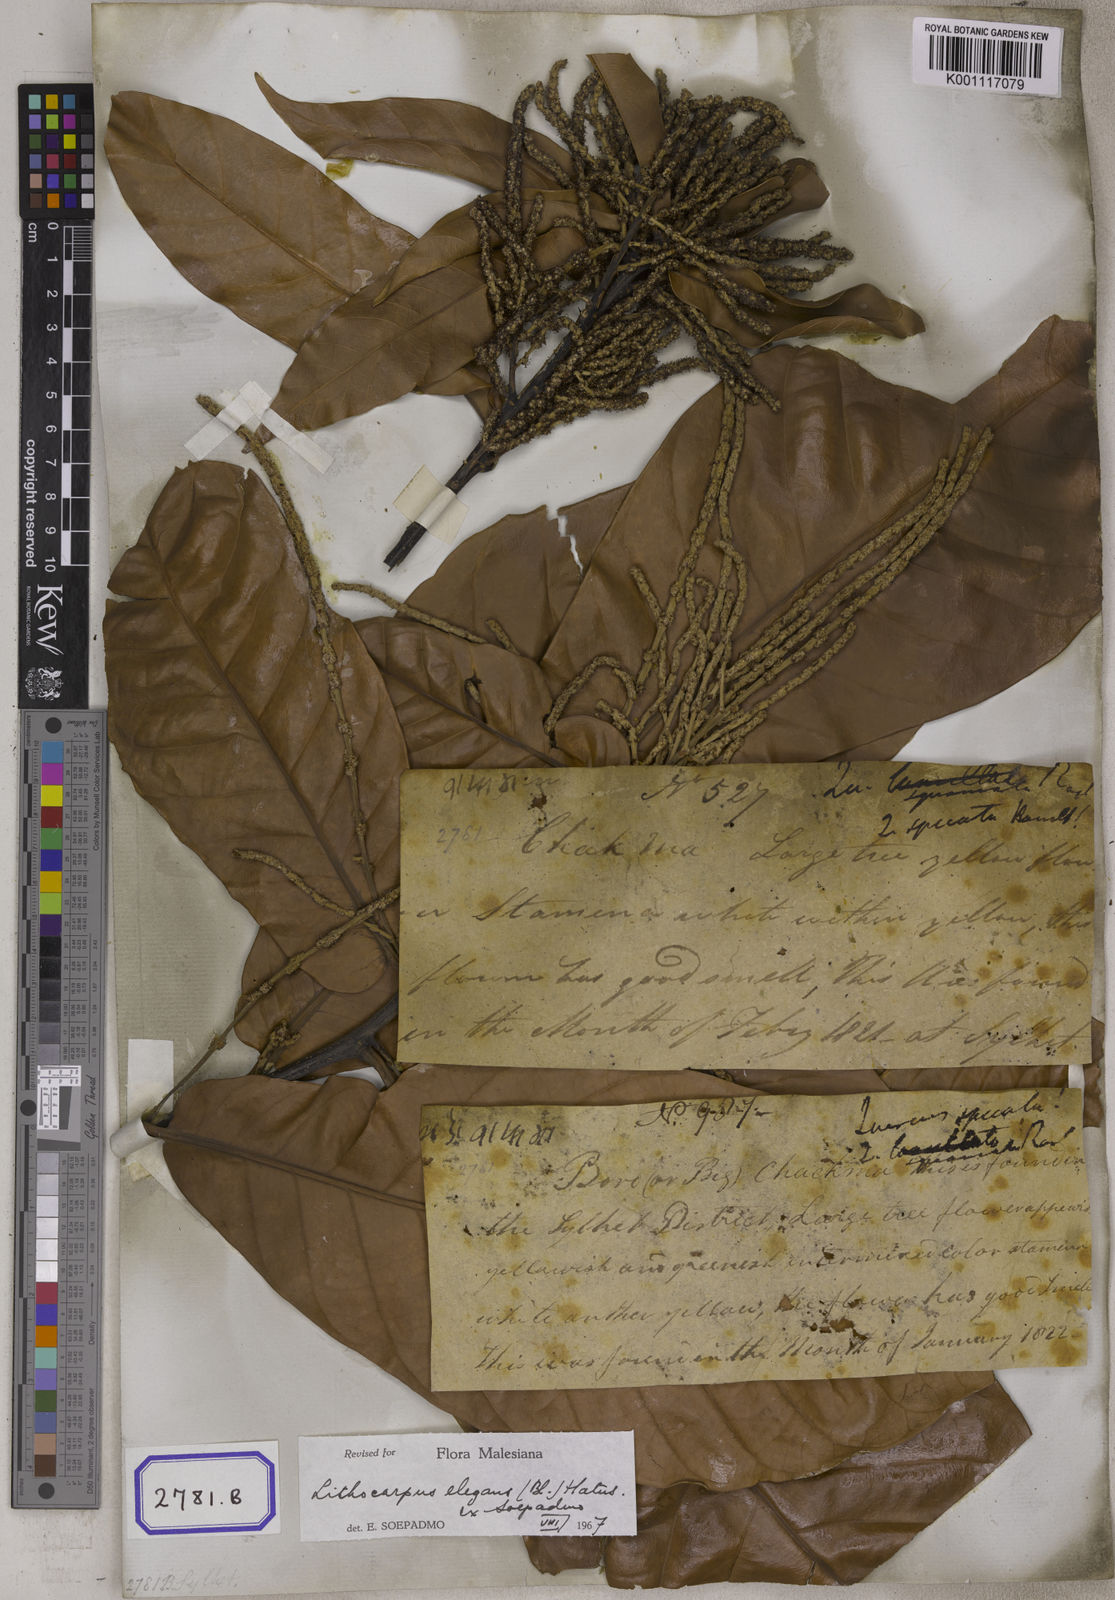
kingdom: Plantae
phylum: Tracheophyta
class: Magnoliopsida
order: Fagales
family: Fagaceae
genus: Lithocarpus
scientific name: Lithocarpus elegans
